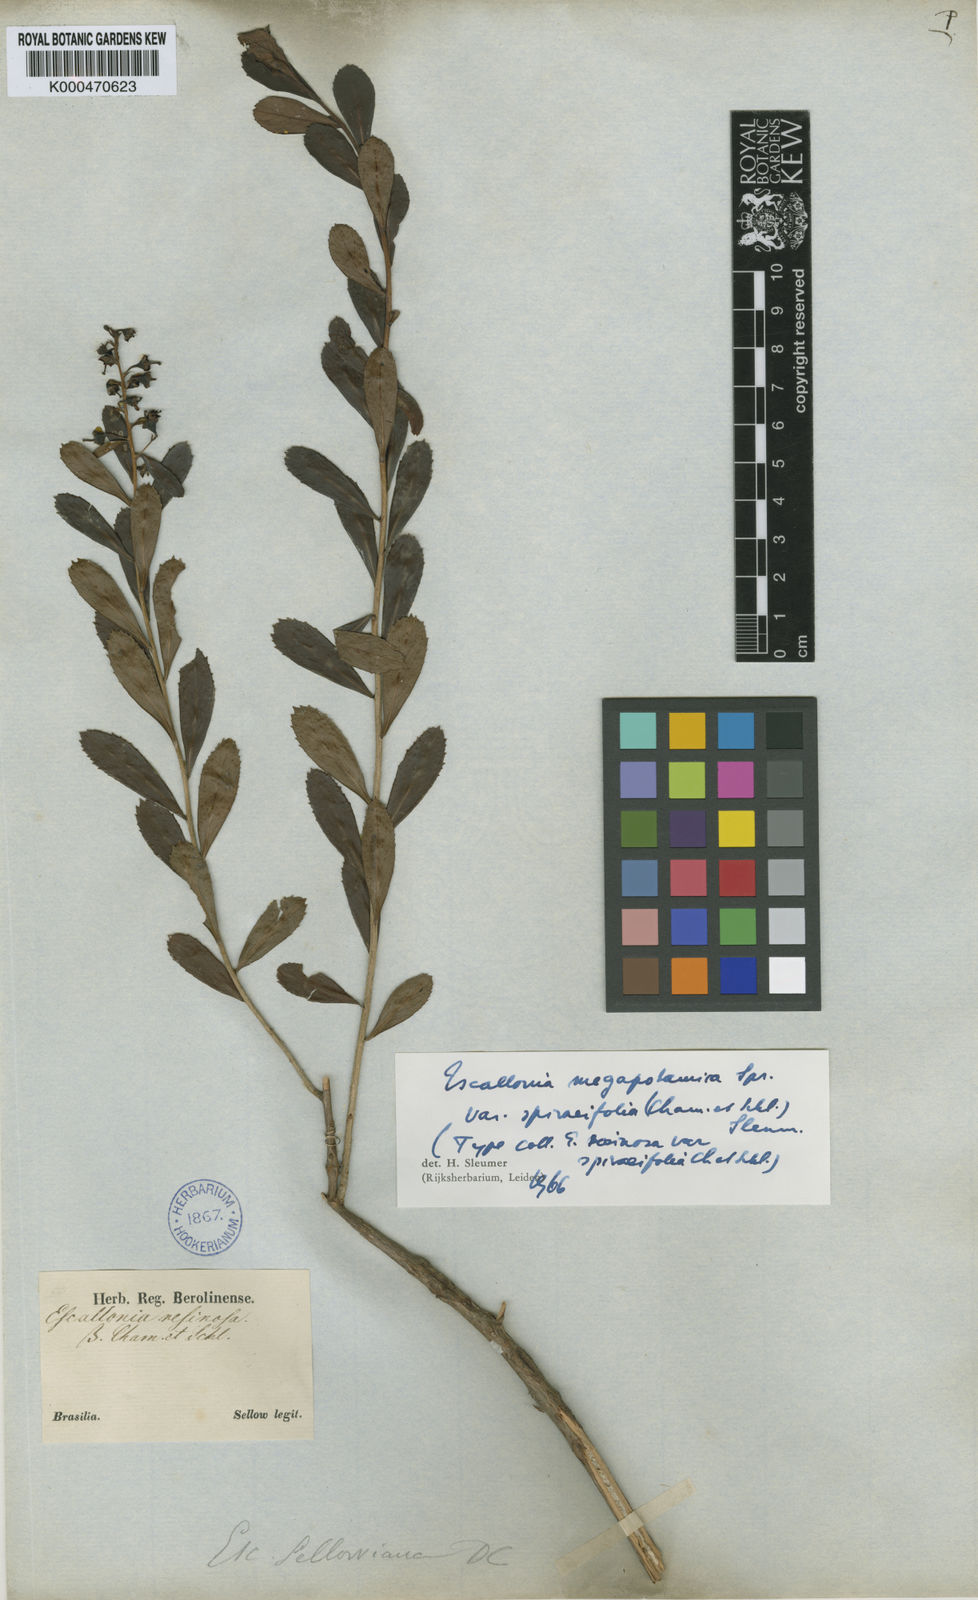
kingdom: Plantae
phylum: Tracheophyta
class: Magnoliopsida
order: Escalloniales
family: Escalloniaceae
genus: Escallonia
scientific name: Escallonia megapotamica
